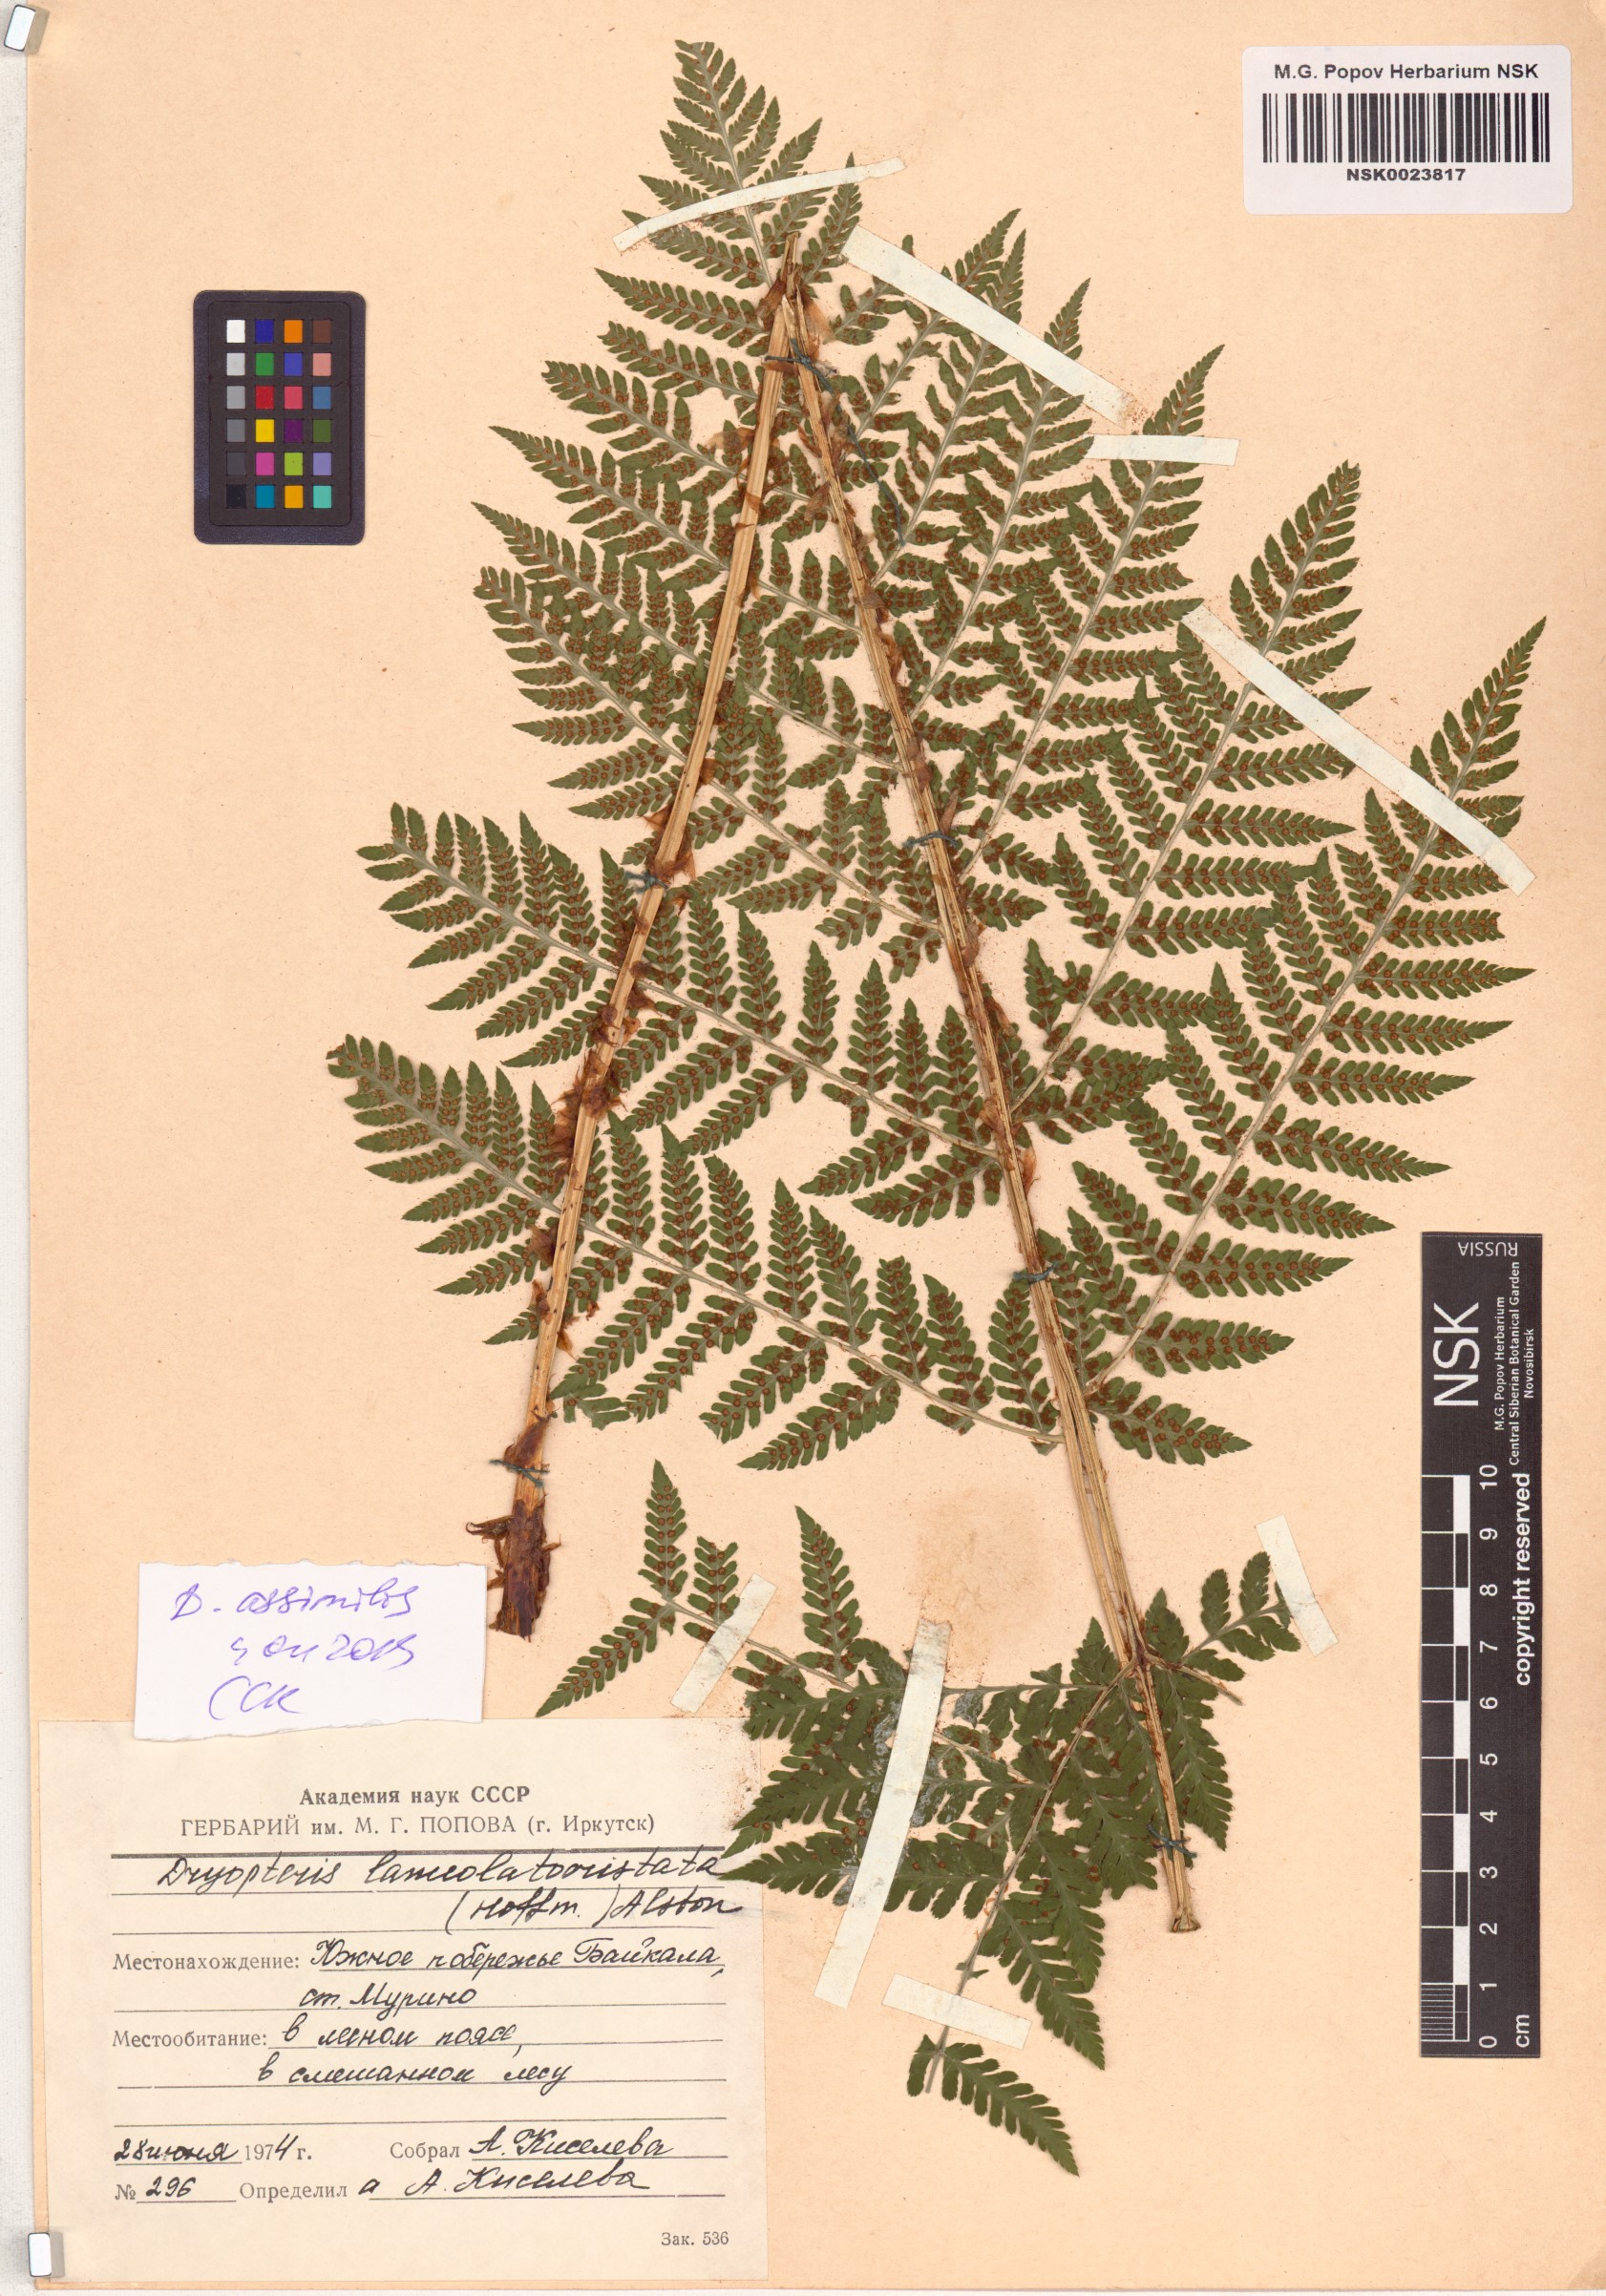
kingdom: Plantae
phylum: Tracheophyta
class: Polypodiopsida
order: Polypodiales
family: Dryopteridaceae
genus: Dryopteris
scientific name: Dryopteris expansa
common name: Northern buckler fern
